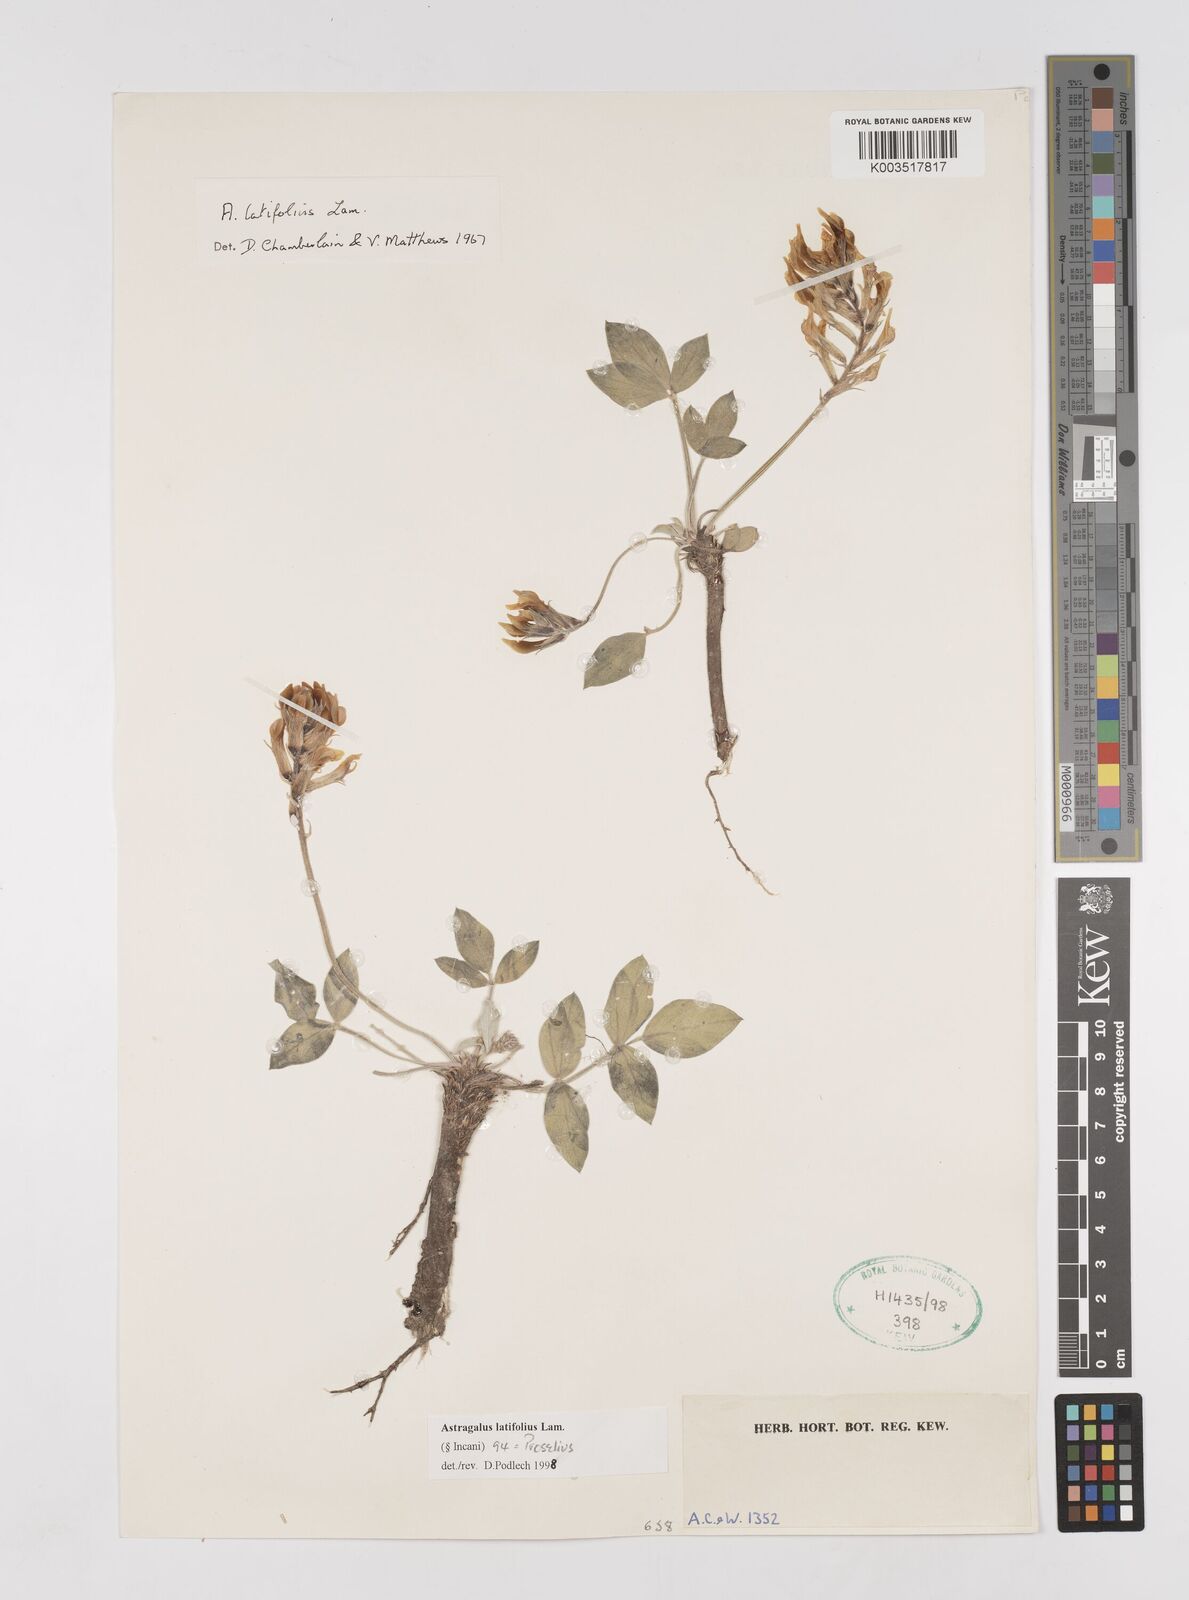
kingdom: Plantae
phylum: Tracheophyta
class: Magnoliopsida
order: Fabales
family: Fabaceae
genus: Astragalus
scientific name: Astragalus latifolius
